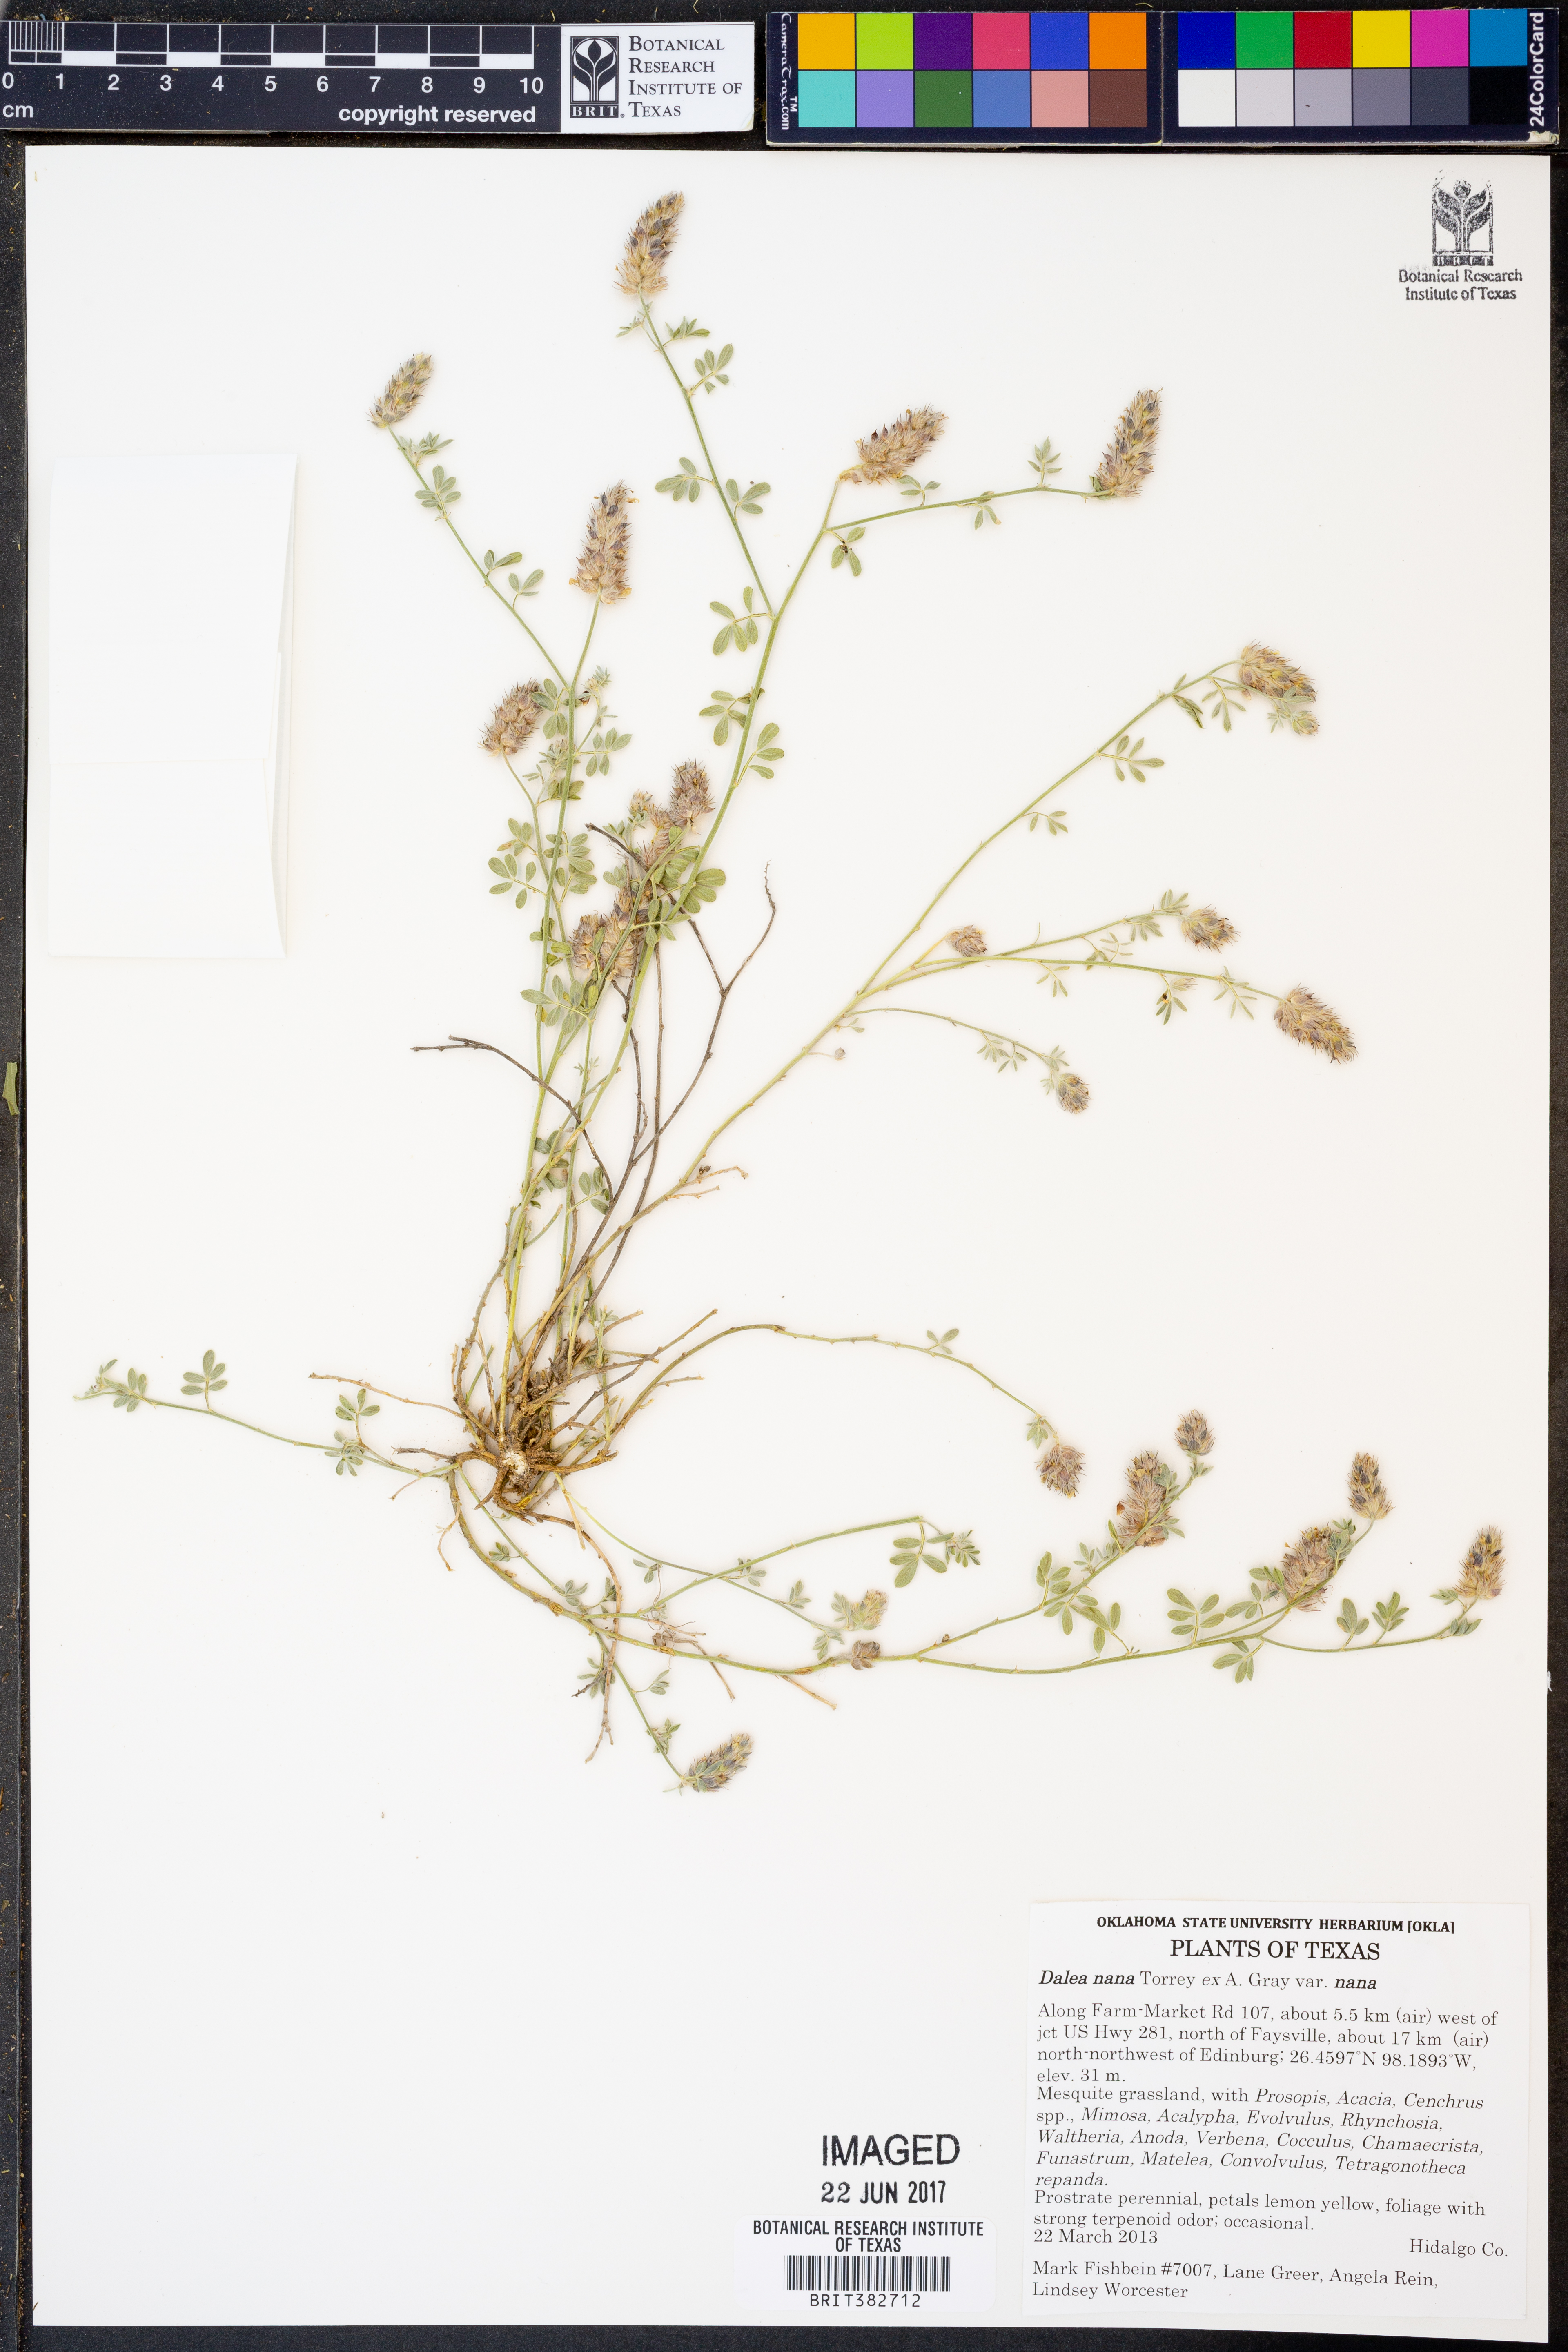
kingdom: Plantae
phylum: Tracheophyta
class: Magnoliopsida
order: Fabales
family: Fabaceae
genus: Dalea
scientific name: Dalea nana
